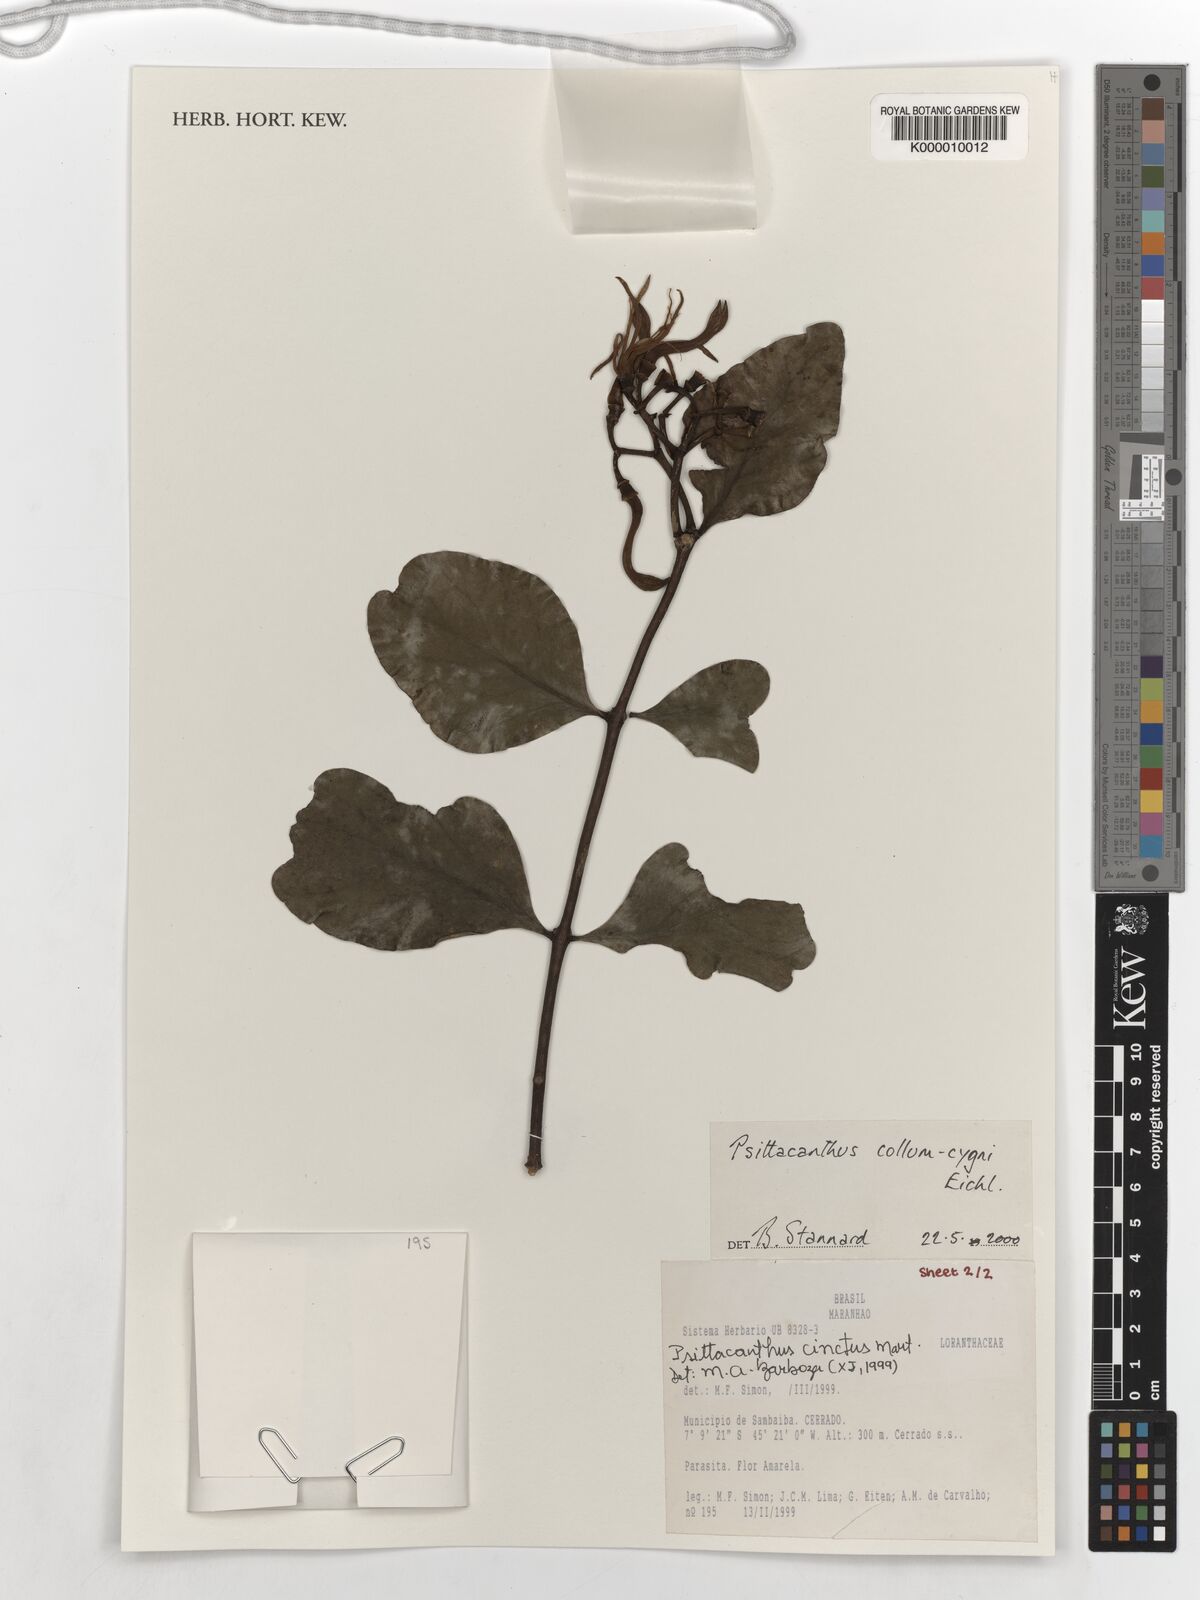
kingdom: Plantae
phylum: Tracheophyta
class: Magnoliopsida
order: Santalales
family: Loranthaceae
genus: Psittacanthus
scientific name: Psittacanthus eucalyptifolius
